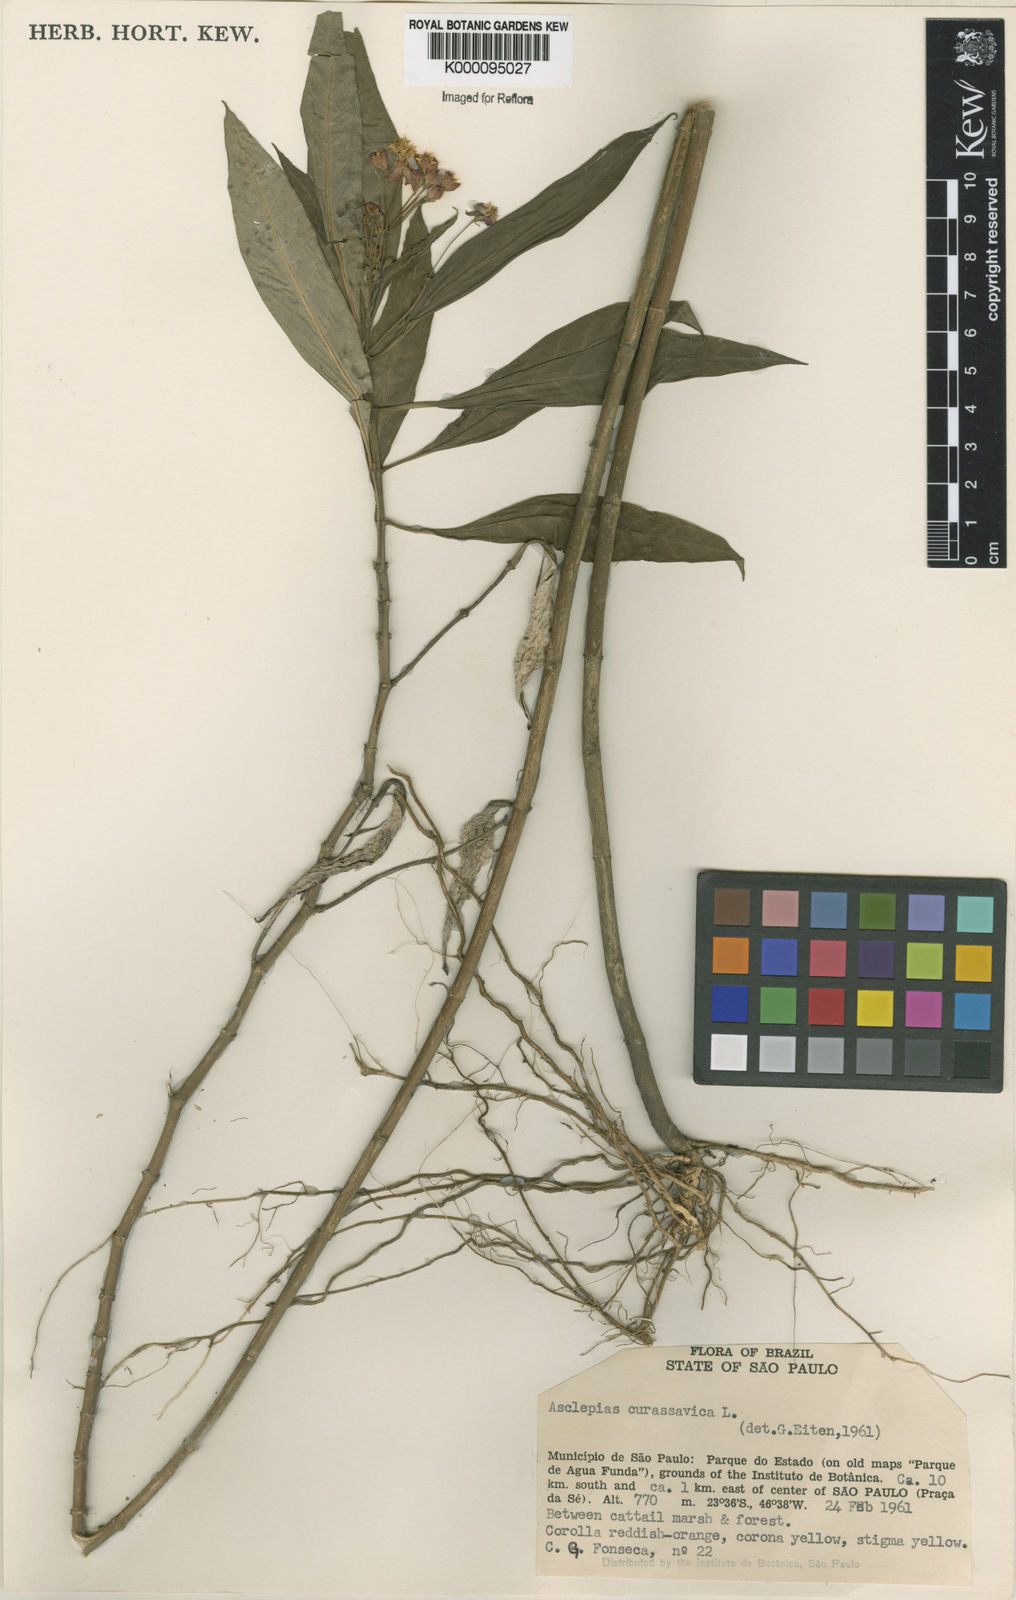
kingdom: Plantae
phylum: Tracheophyta
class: Magnoliopsida
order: Gentianales
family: Apocynaceae
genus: Asclepias
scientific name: Asclepias curassavica
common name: Bloodflower
